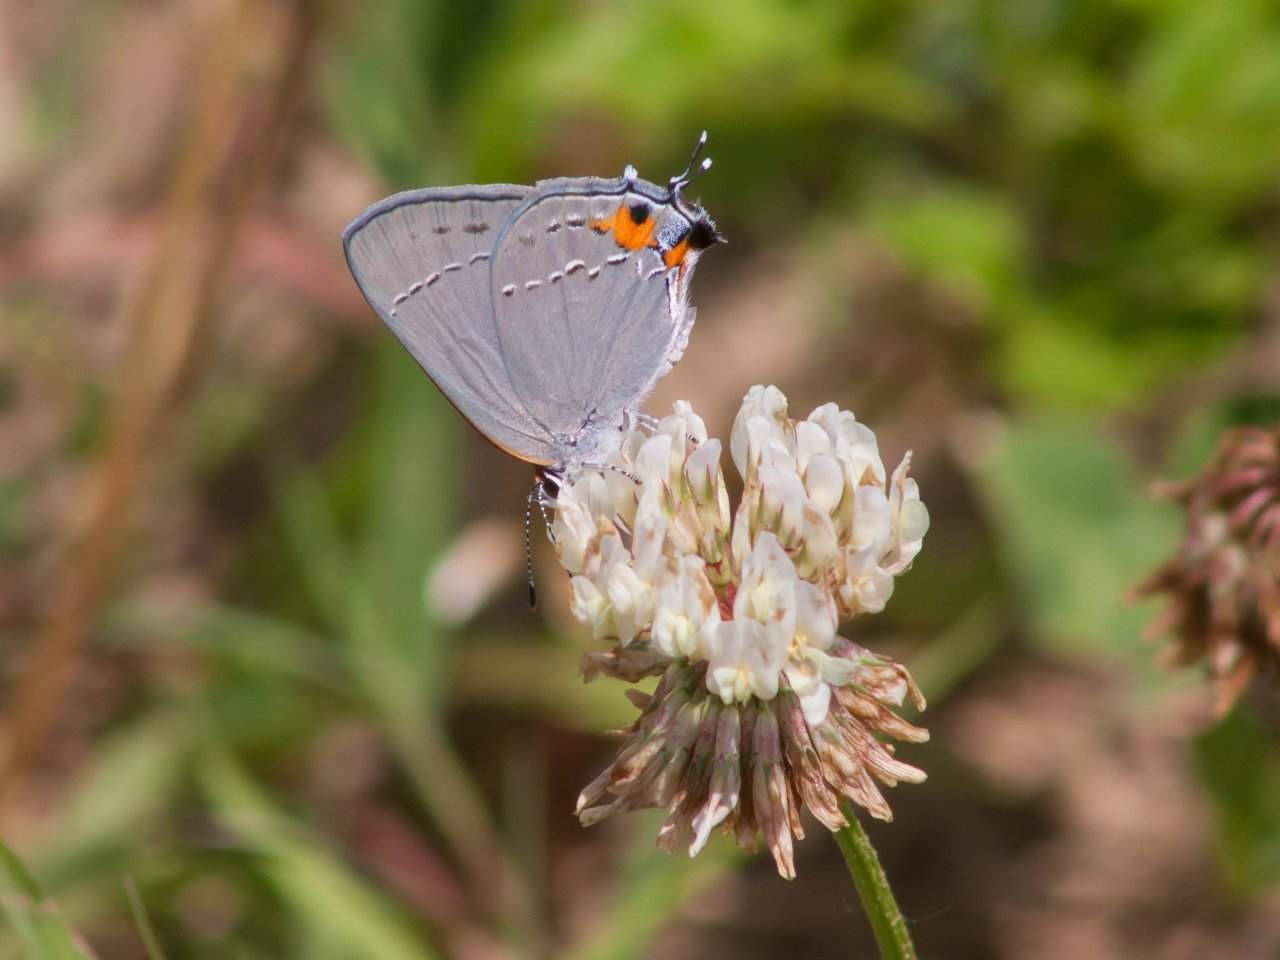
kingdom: Animalia
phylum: Arthropoda
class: Insecta
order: Lepidoptera
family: Lycaenidae
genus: Strymon
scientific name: Strymon melinus
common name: Gray Hairstreak
